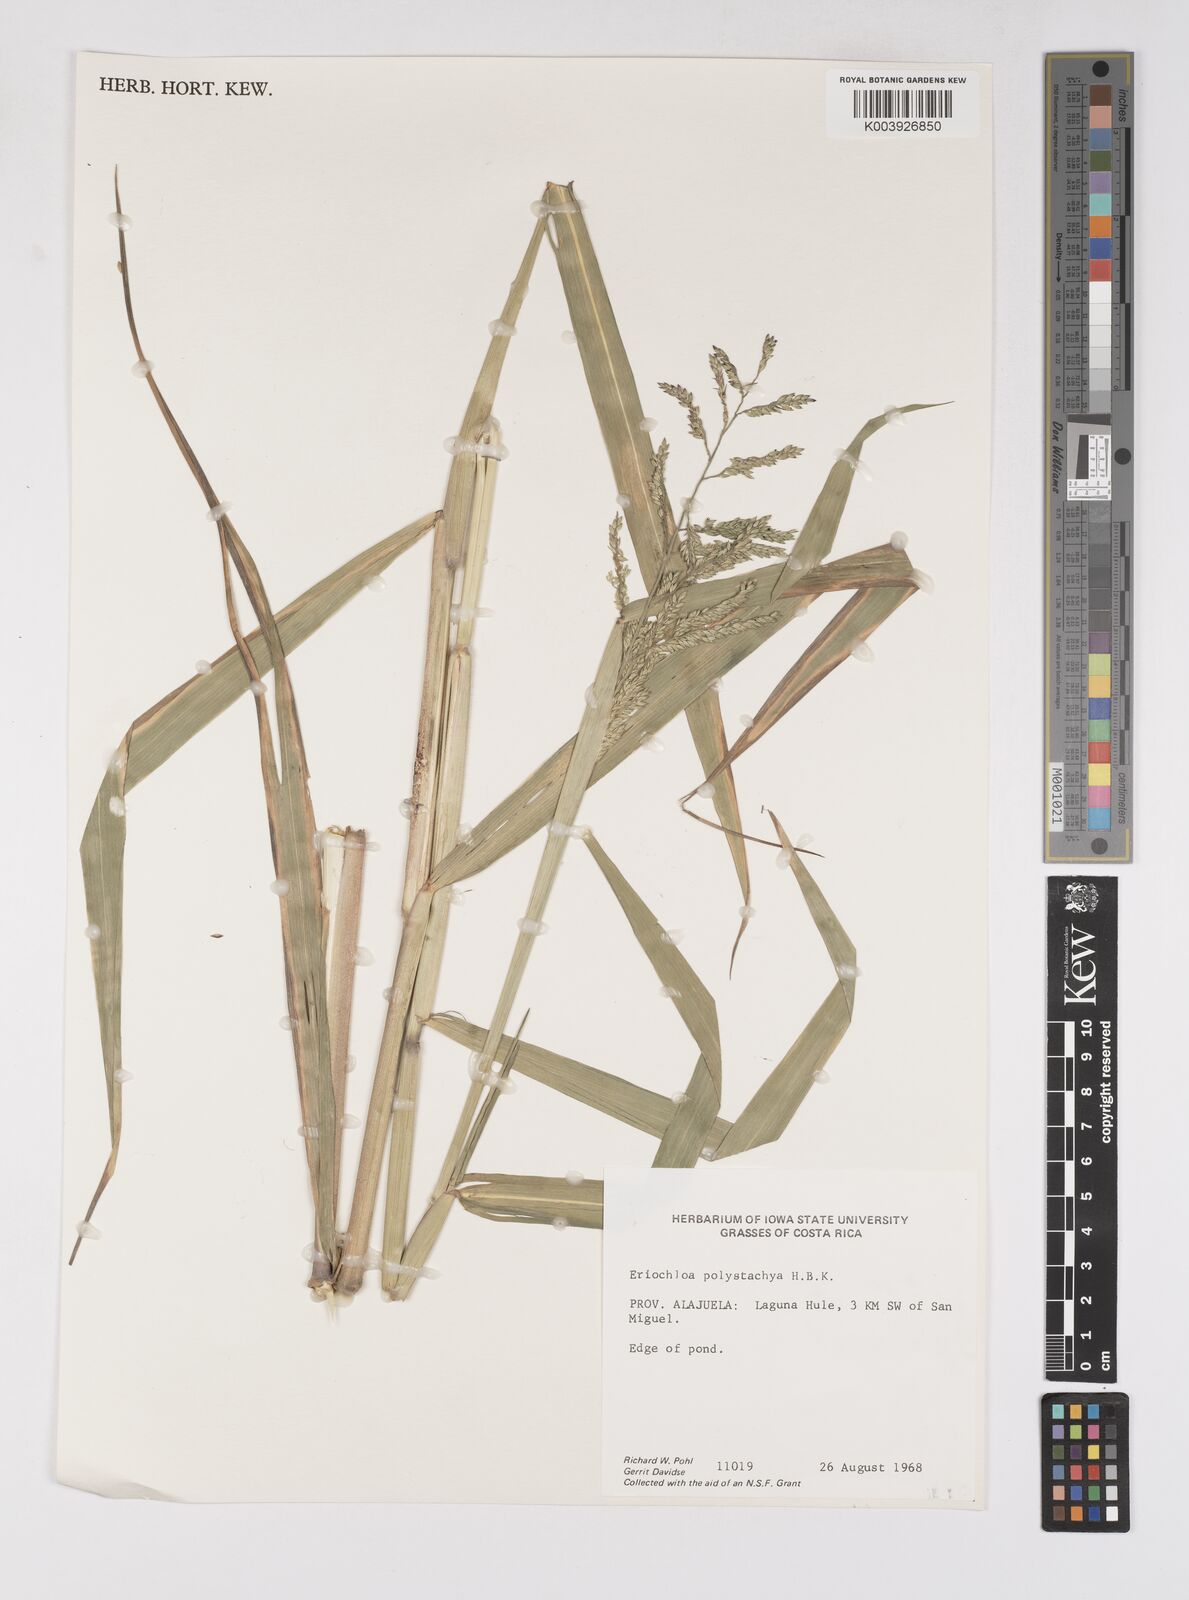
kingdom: Plantae
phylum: Tracheophyta
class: Liliopsida
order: Poales
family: Poaceae
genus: Urochloa
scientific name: Urochloa polystachya
